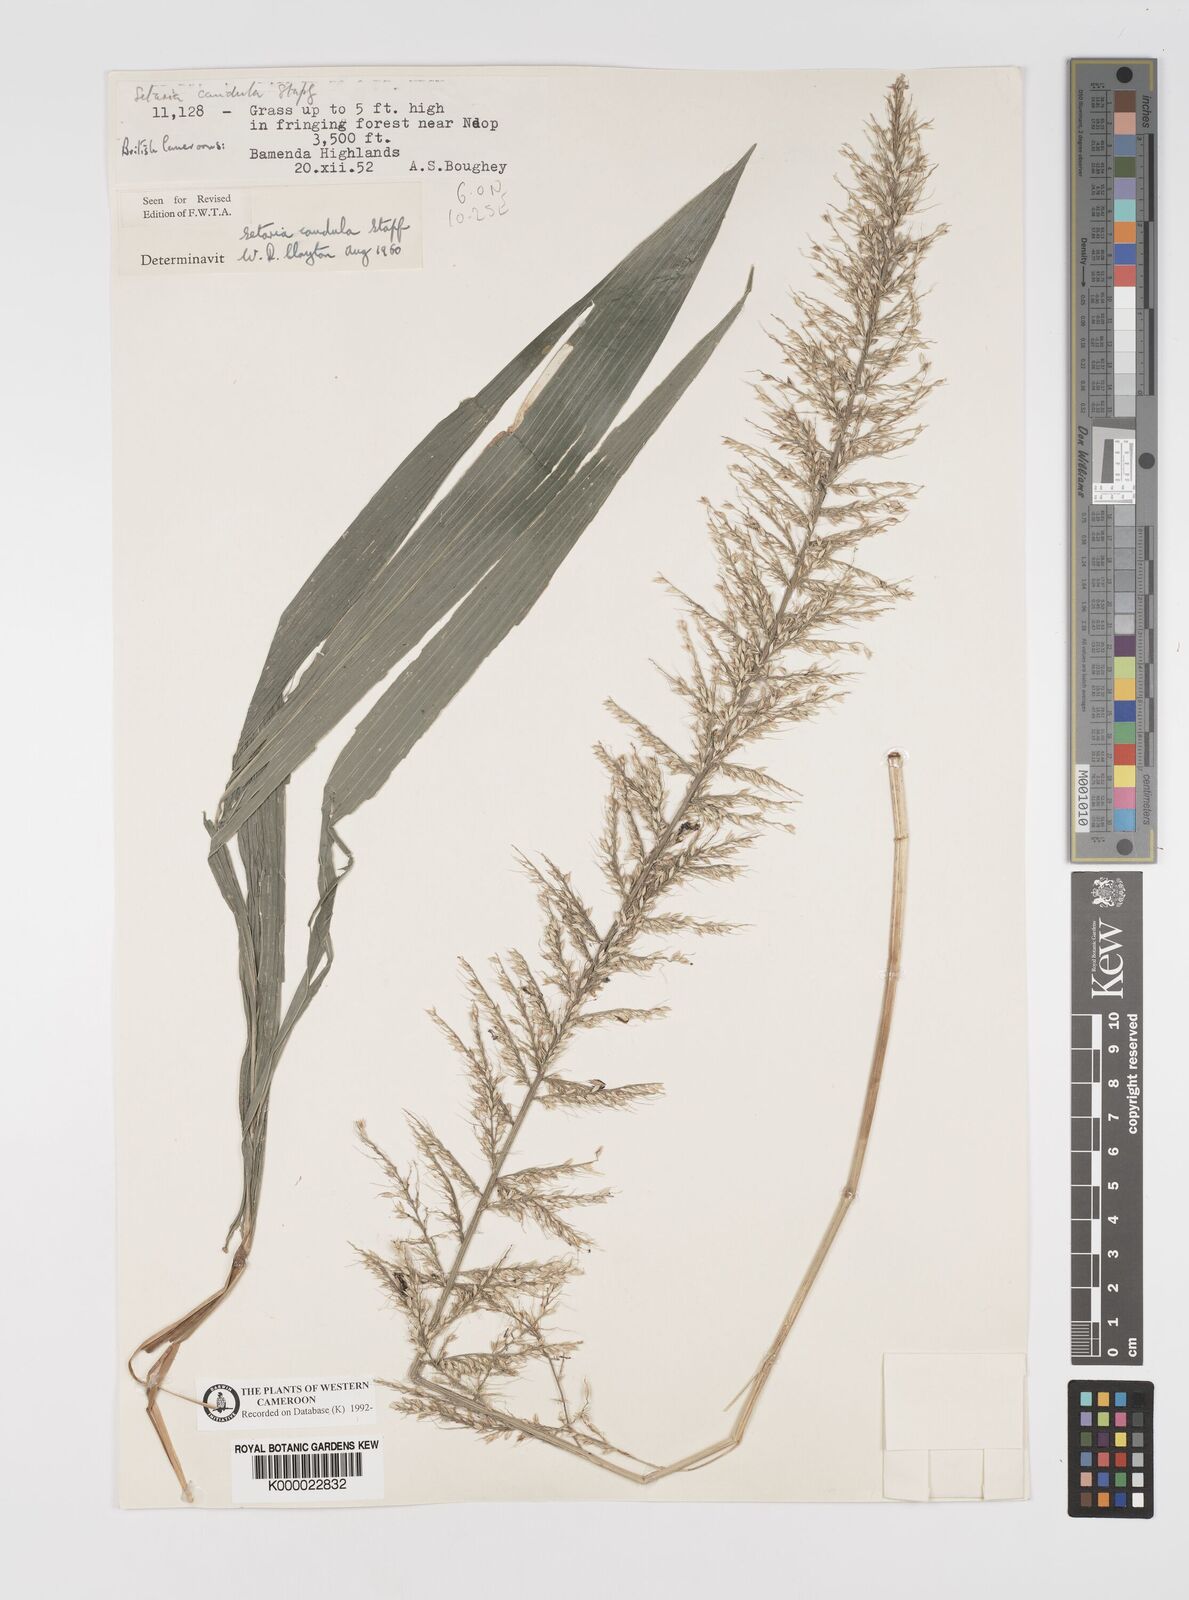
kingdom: Plantae
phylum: Tracheophyta
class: Liliopsida
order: Poales
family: Poaceae
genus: Setaria
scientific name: Setaria poiretiana
